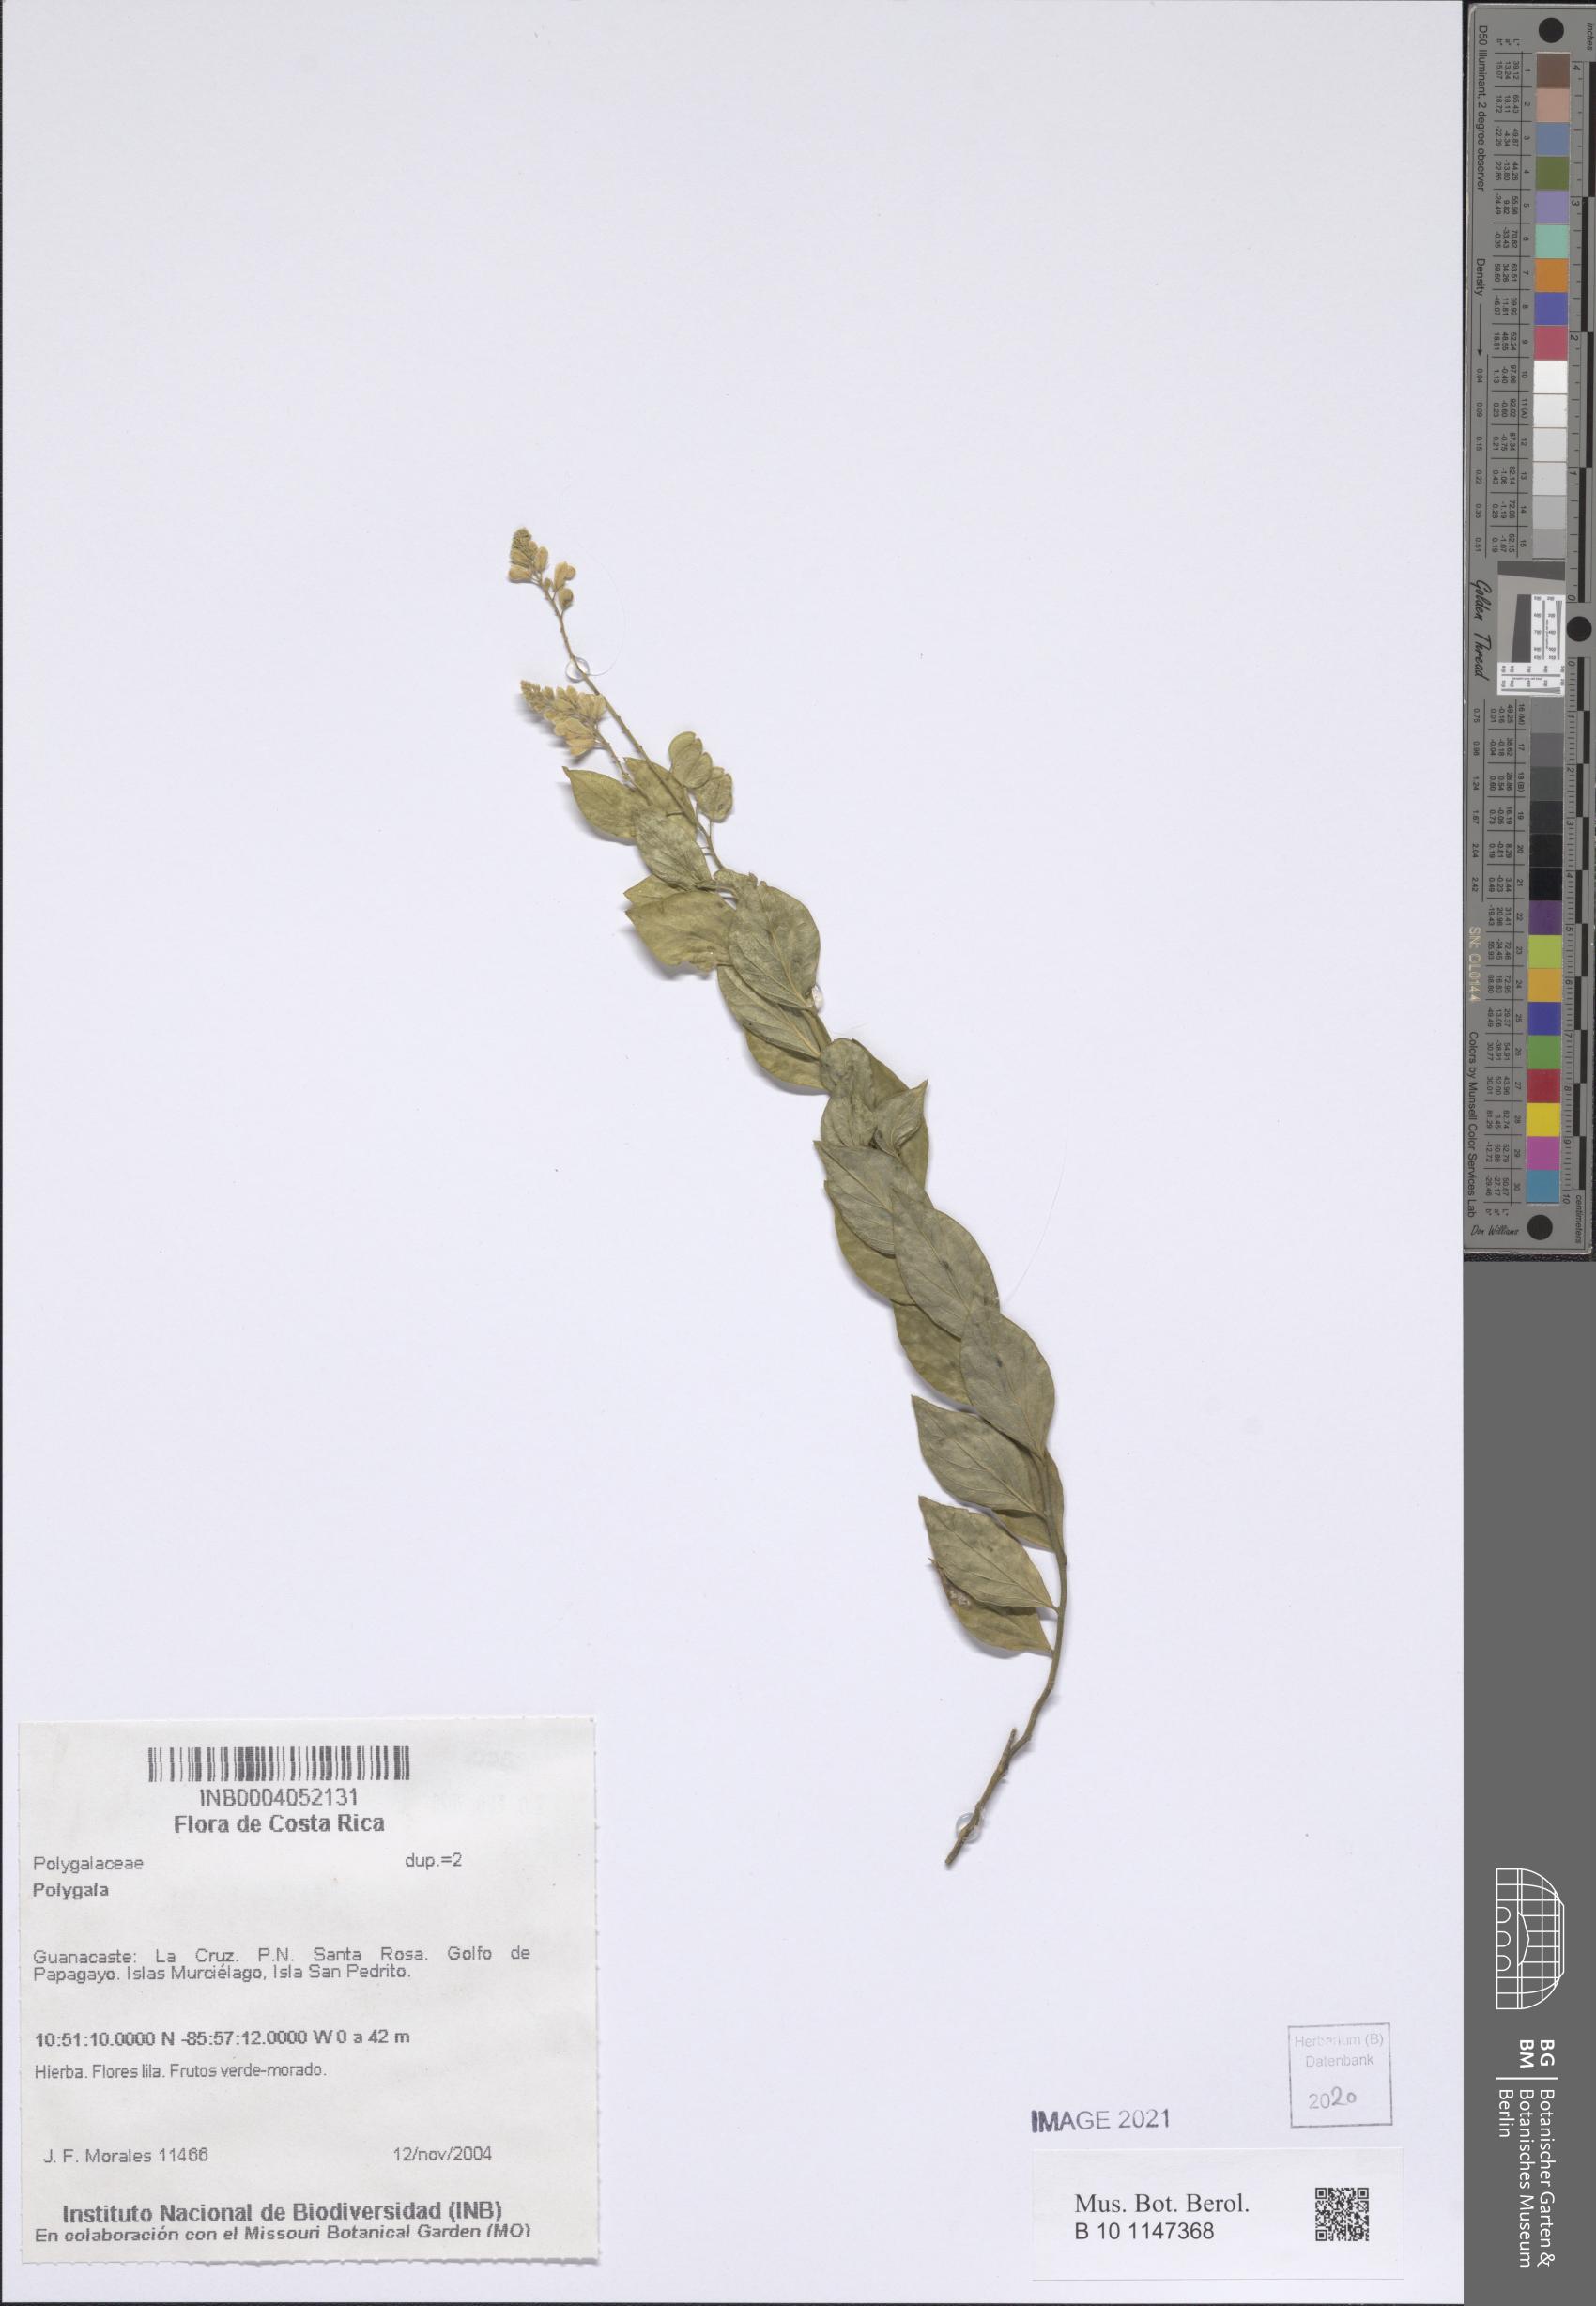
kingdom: Plantae
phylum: Tracheophyta
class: Magnoliopsida
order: Fabales
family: Polygalaceae
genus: Polygala
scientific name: Polygala
